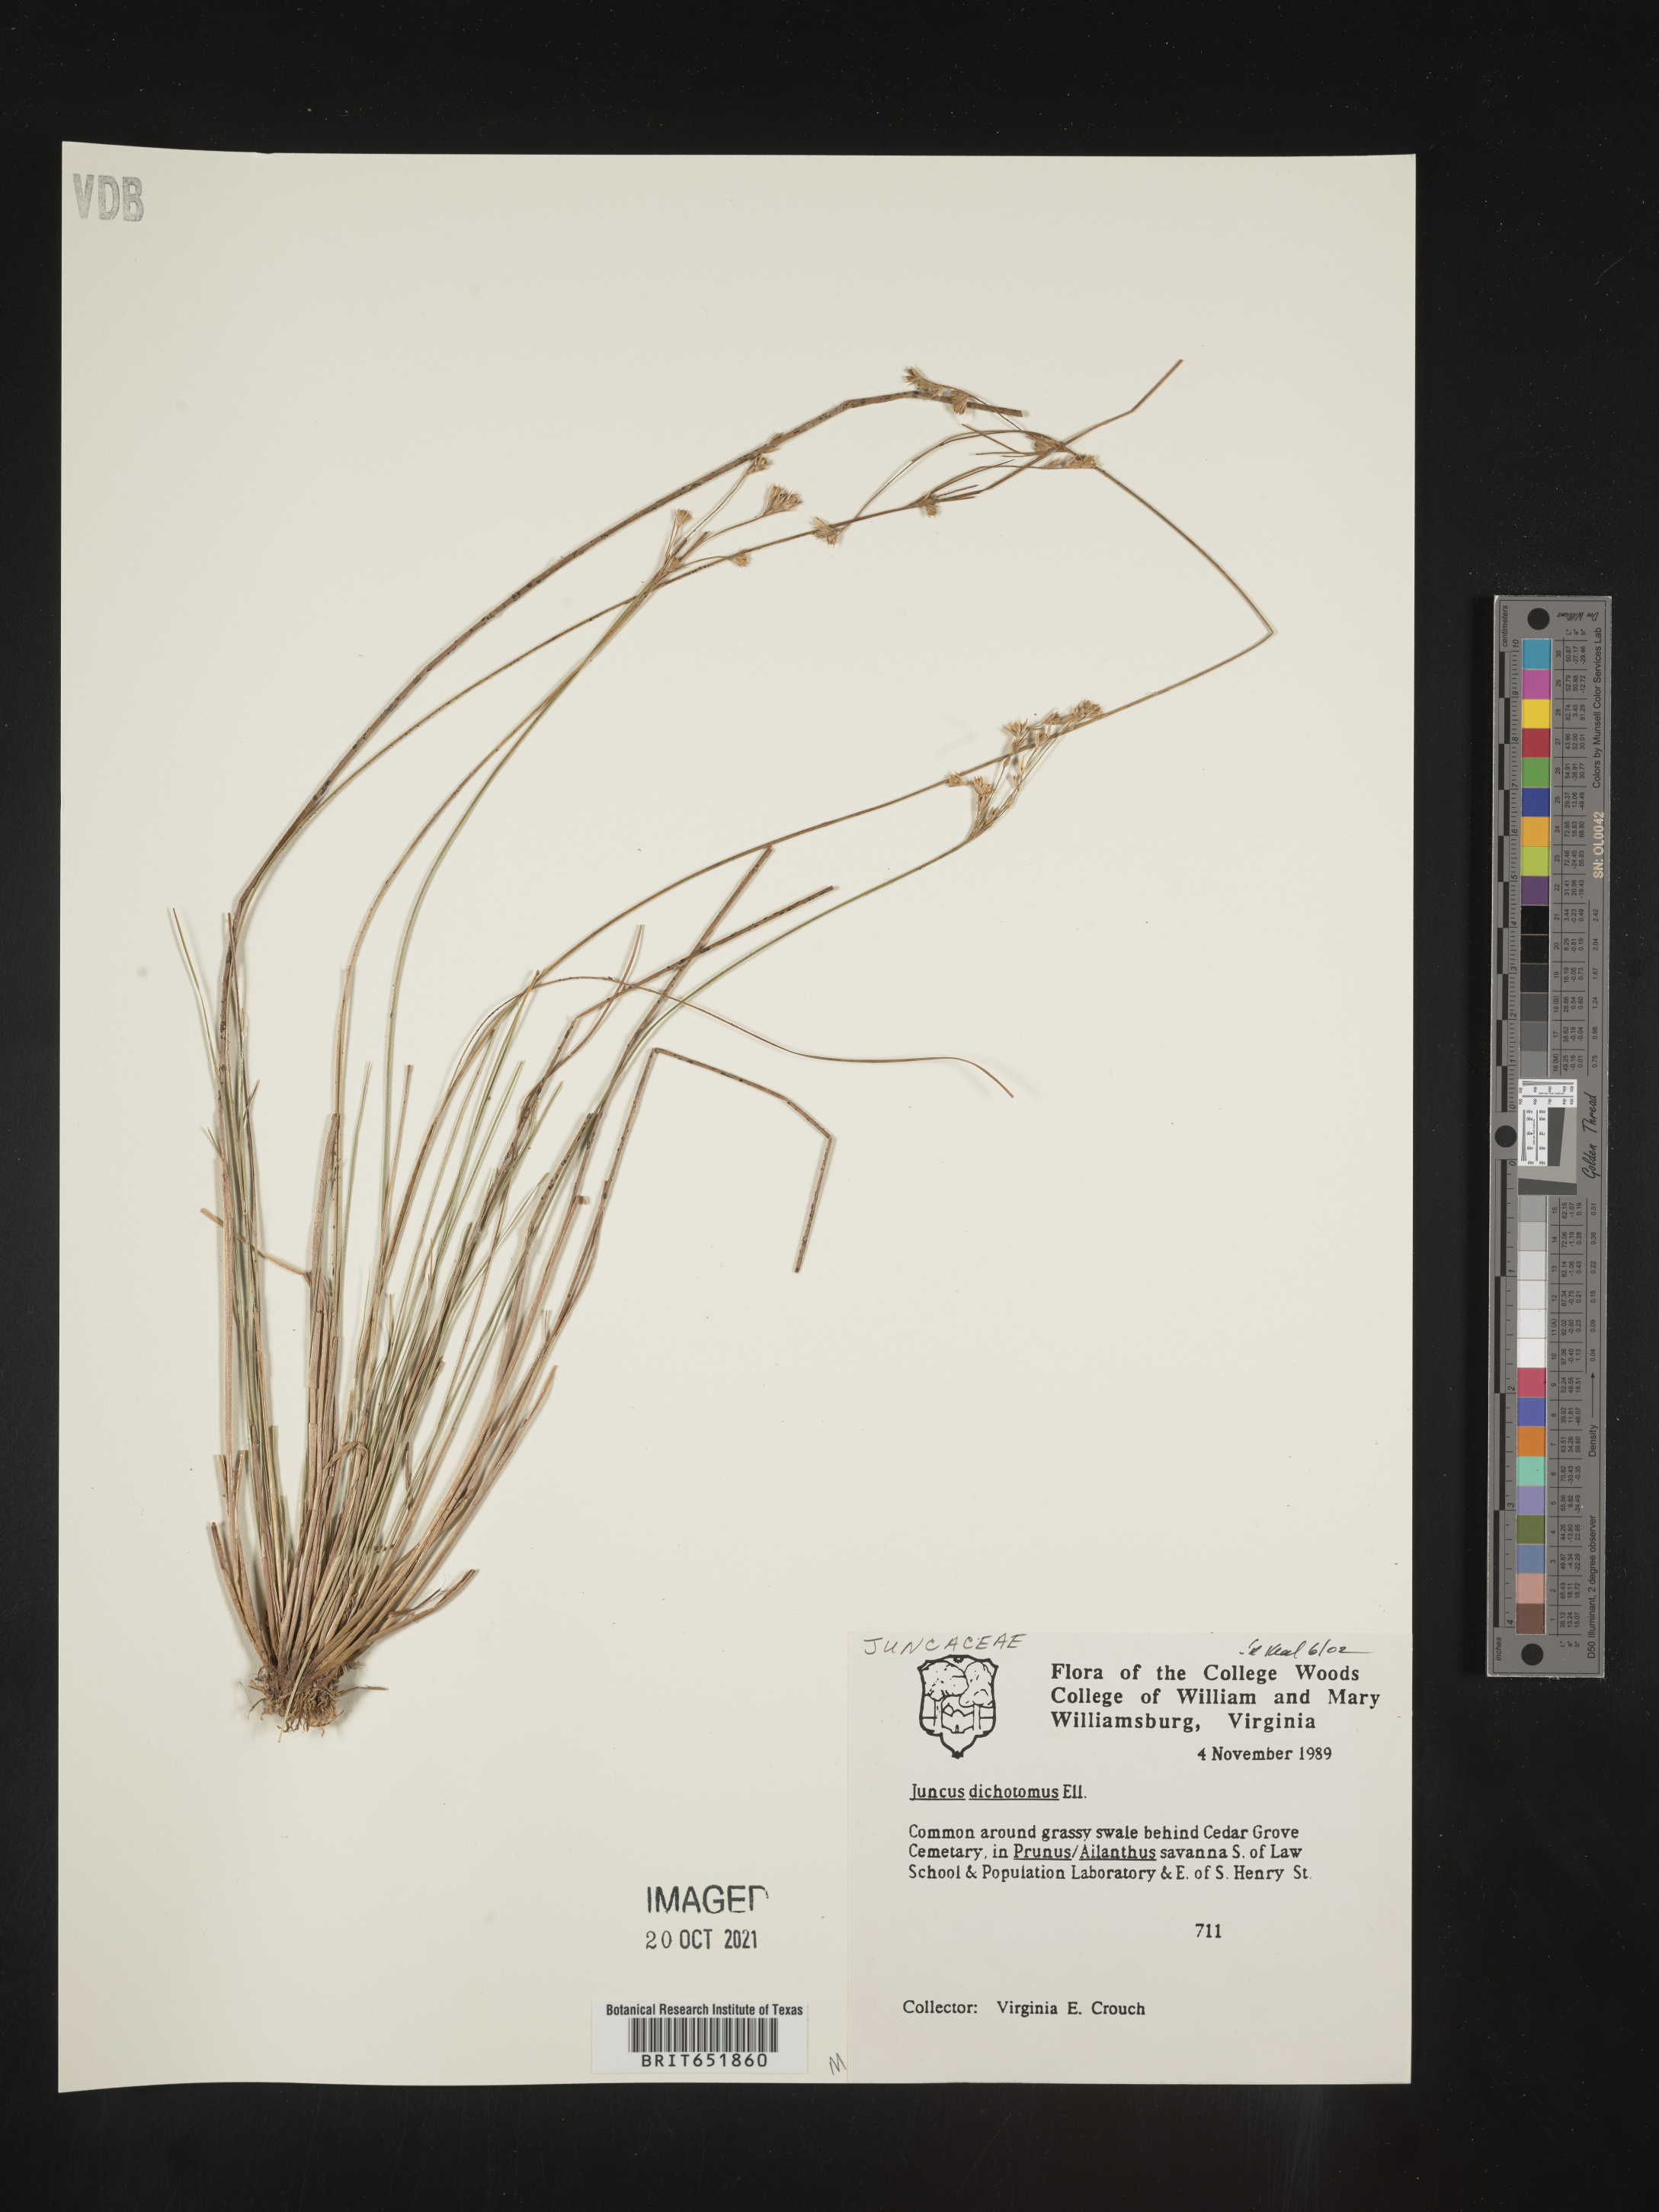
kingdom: Plantae
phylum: Tracheophyta
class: Liliopsida
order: Poales
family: Juncaceae
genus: Juncus
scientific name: Juncus dichotomus
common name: Forked rush
